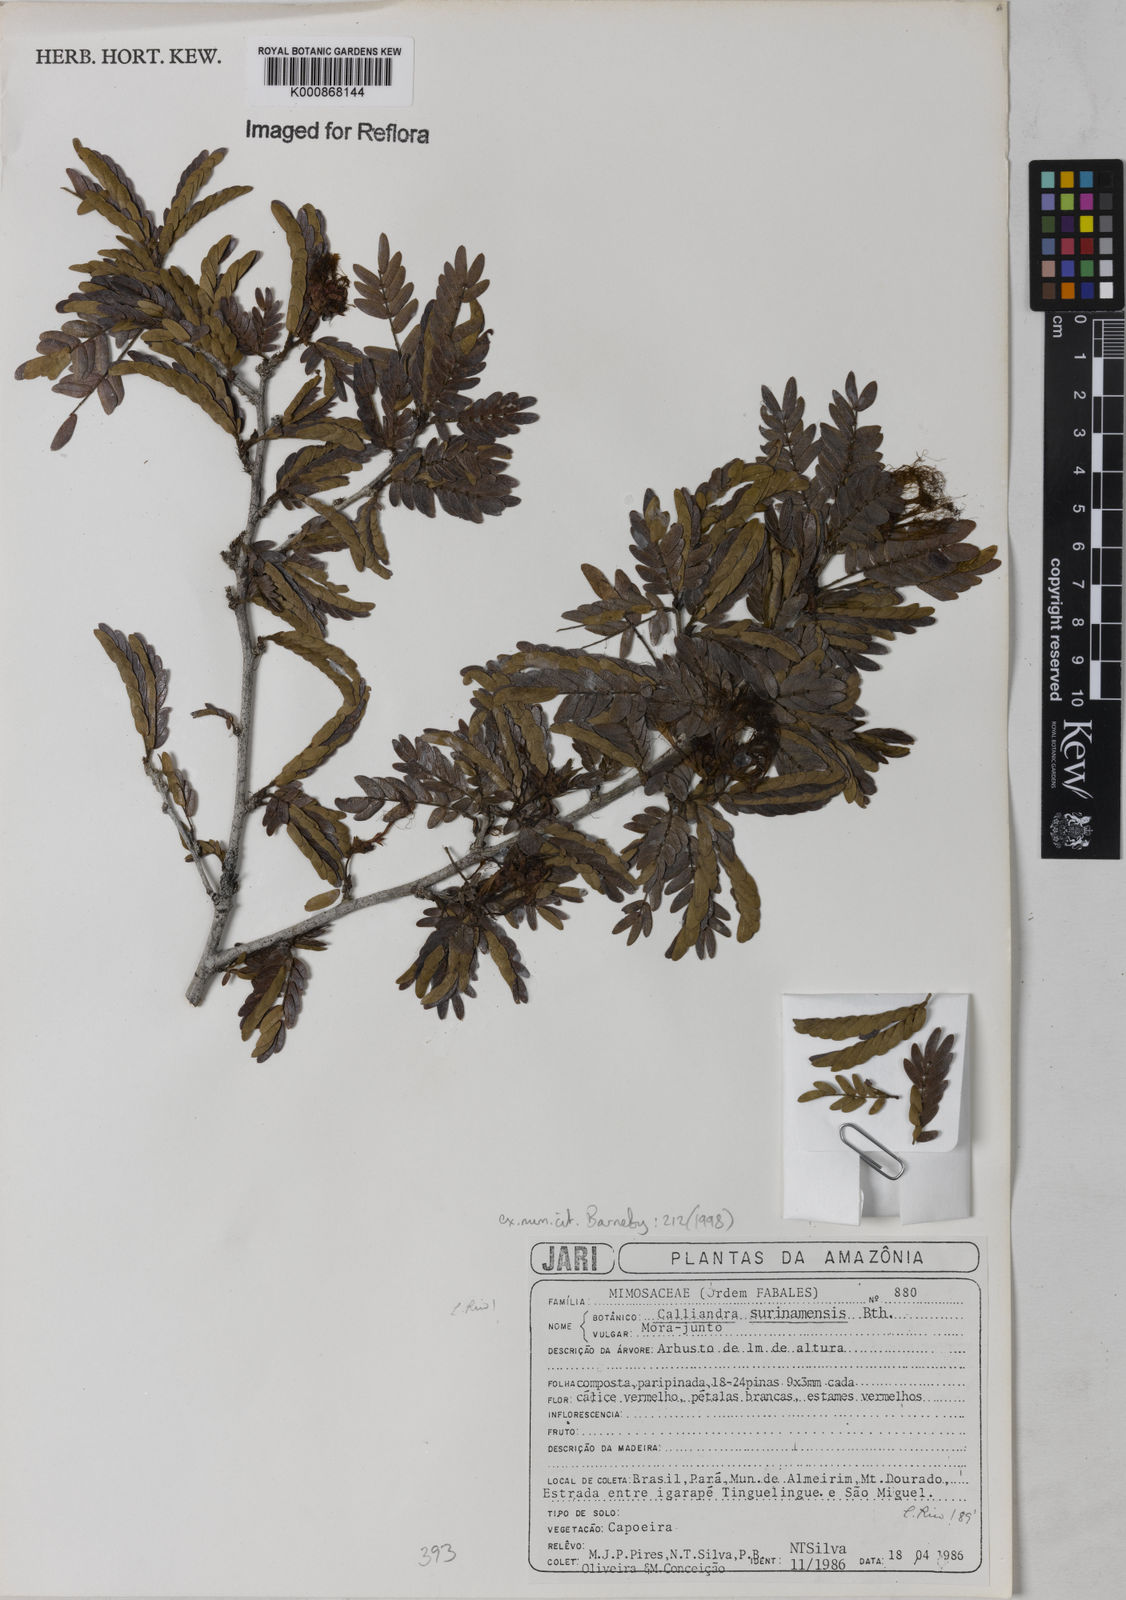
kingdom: Plantae
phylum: Tracheophyta
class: Magnoliopsida
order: Fabales
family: Fabaceae
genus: Calliandra
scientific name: Calliandra surinamensis
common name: Pink powder puff
